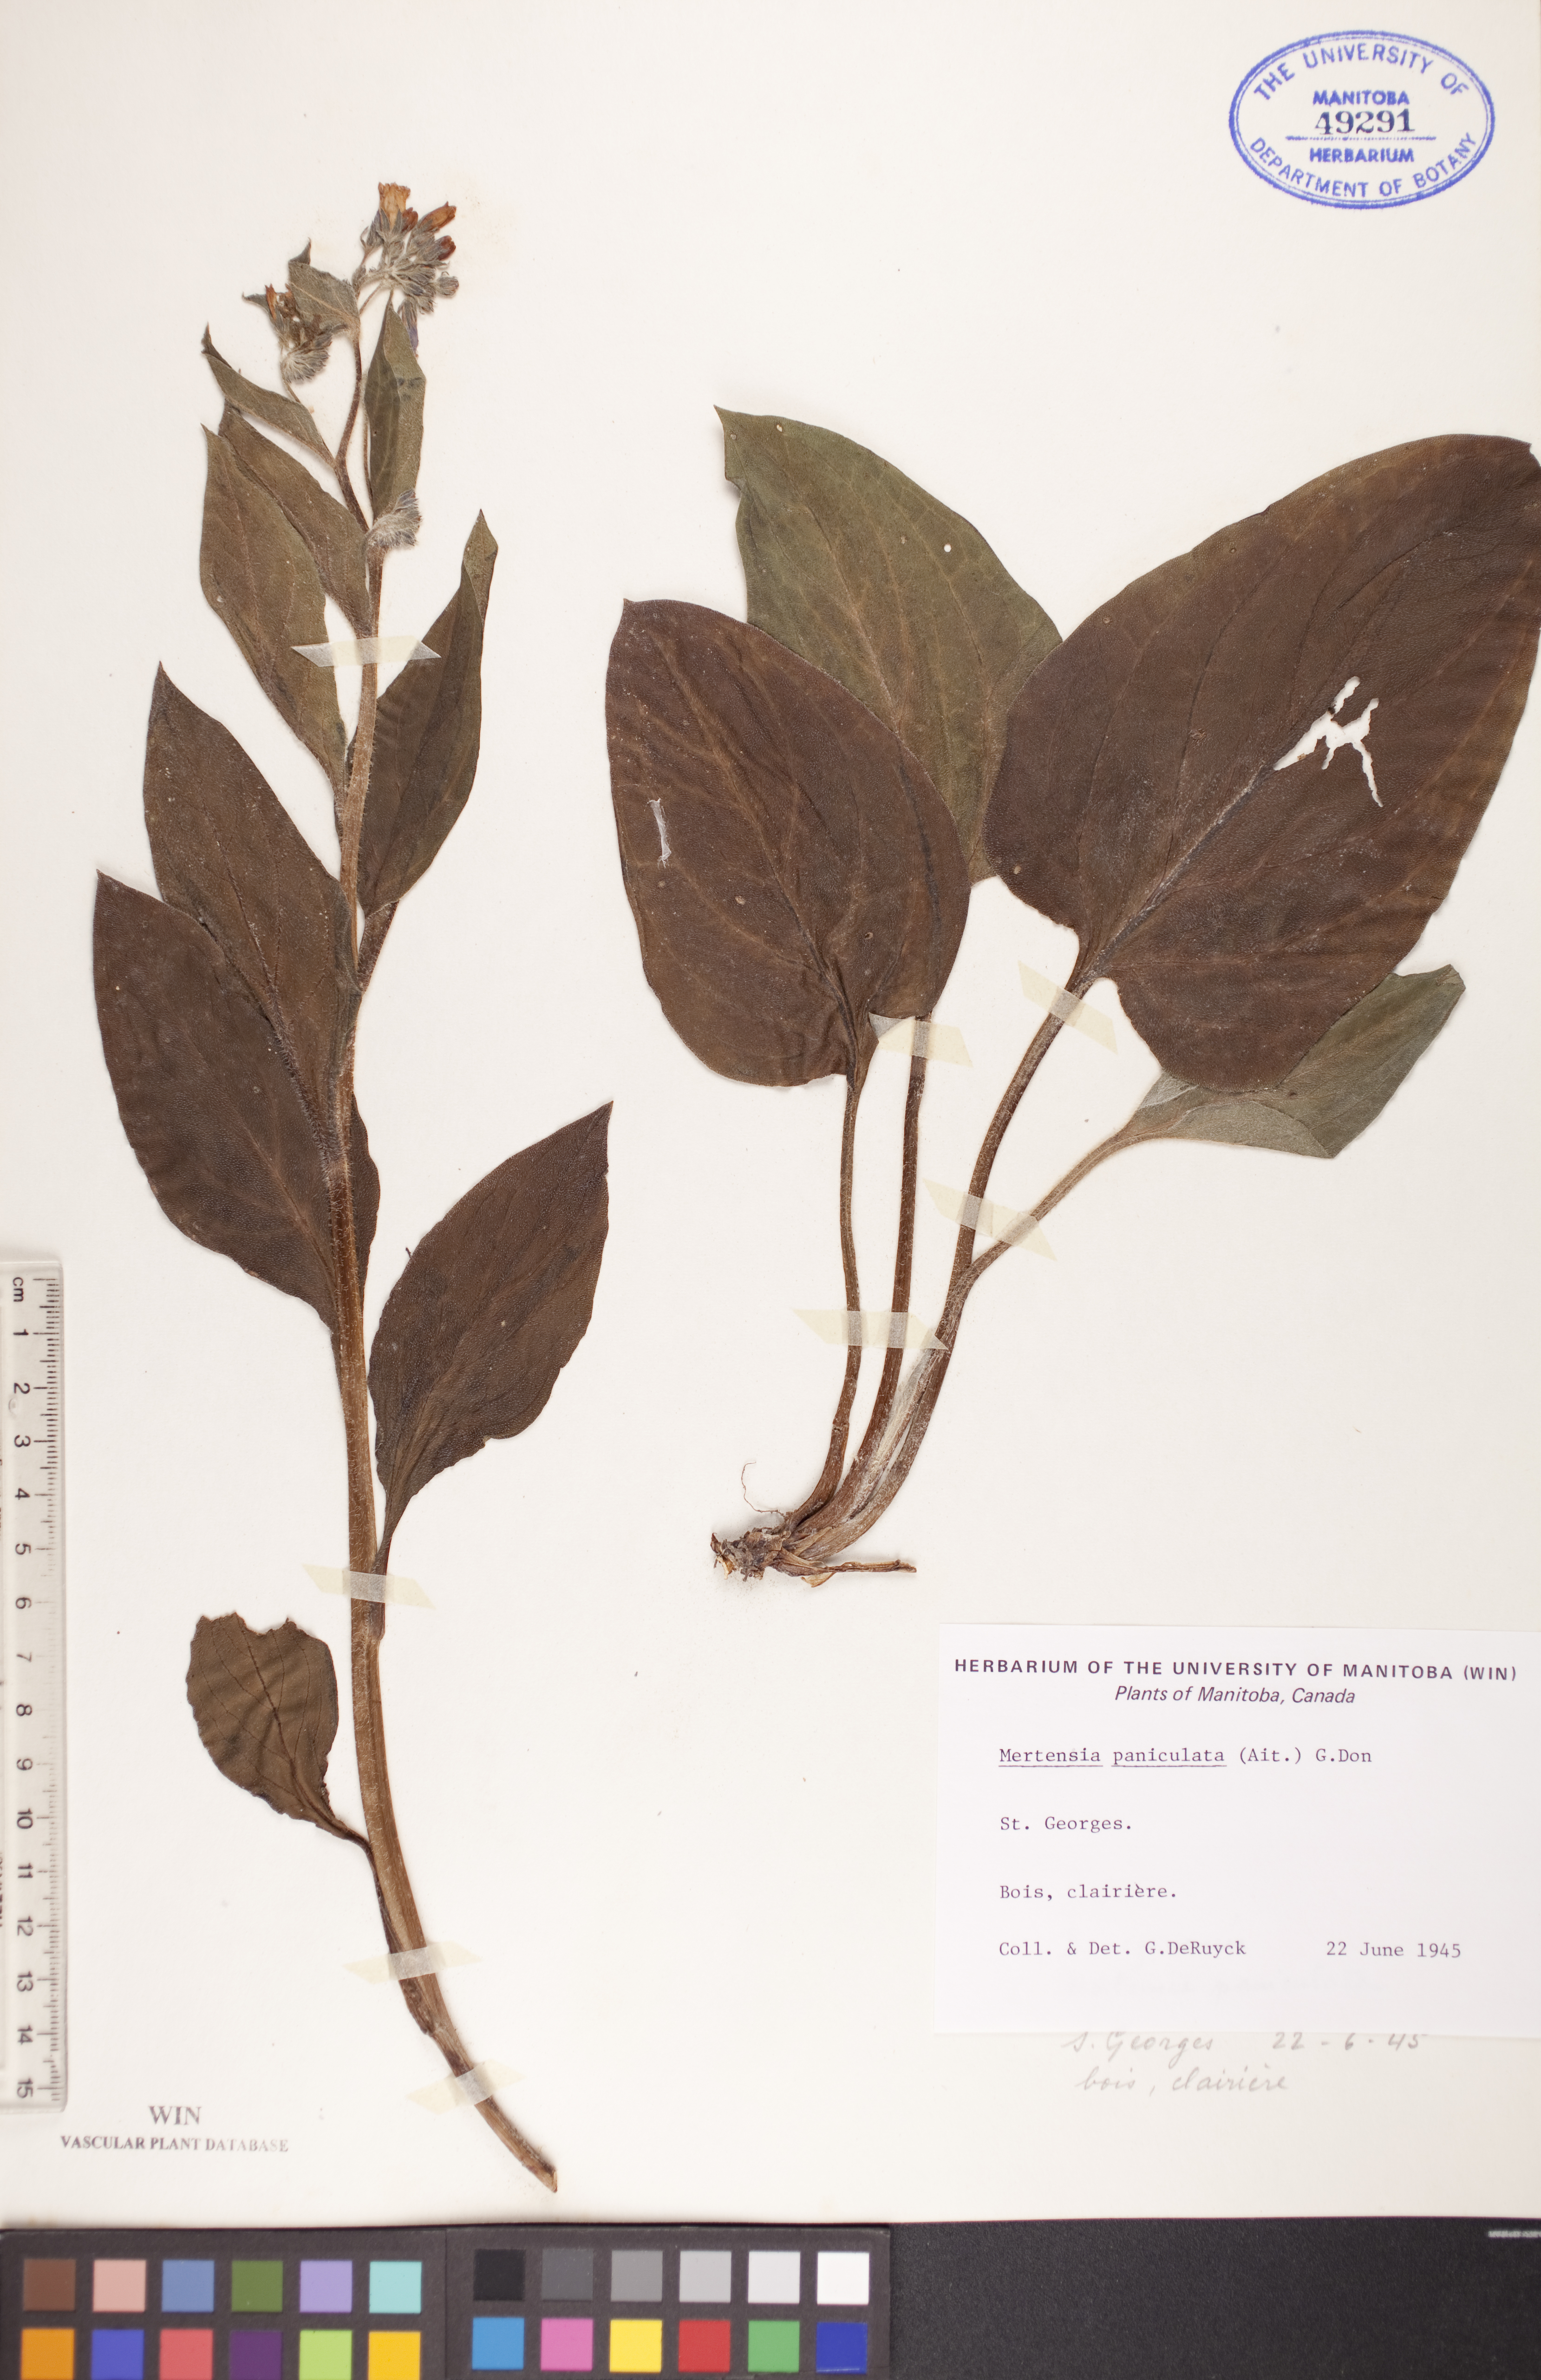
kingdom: Plantae
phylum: Tracheophyta
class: Magnoliopsida
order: Boraginales
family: Boraginaceae
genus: Mertensia
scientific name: Mertensia paniculata
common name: Panicled bluebells
